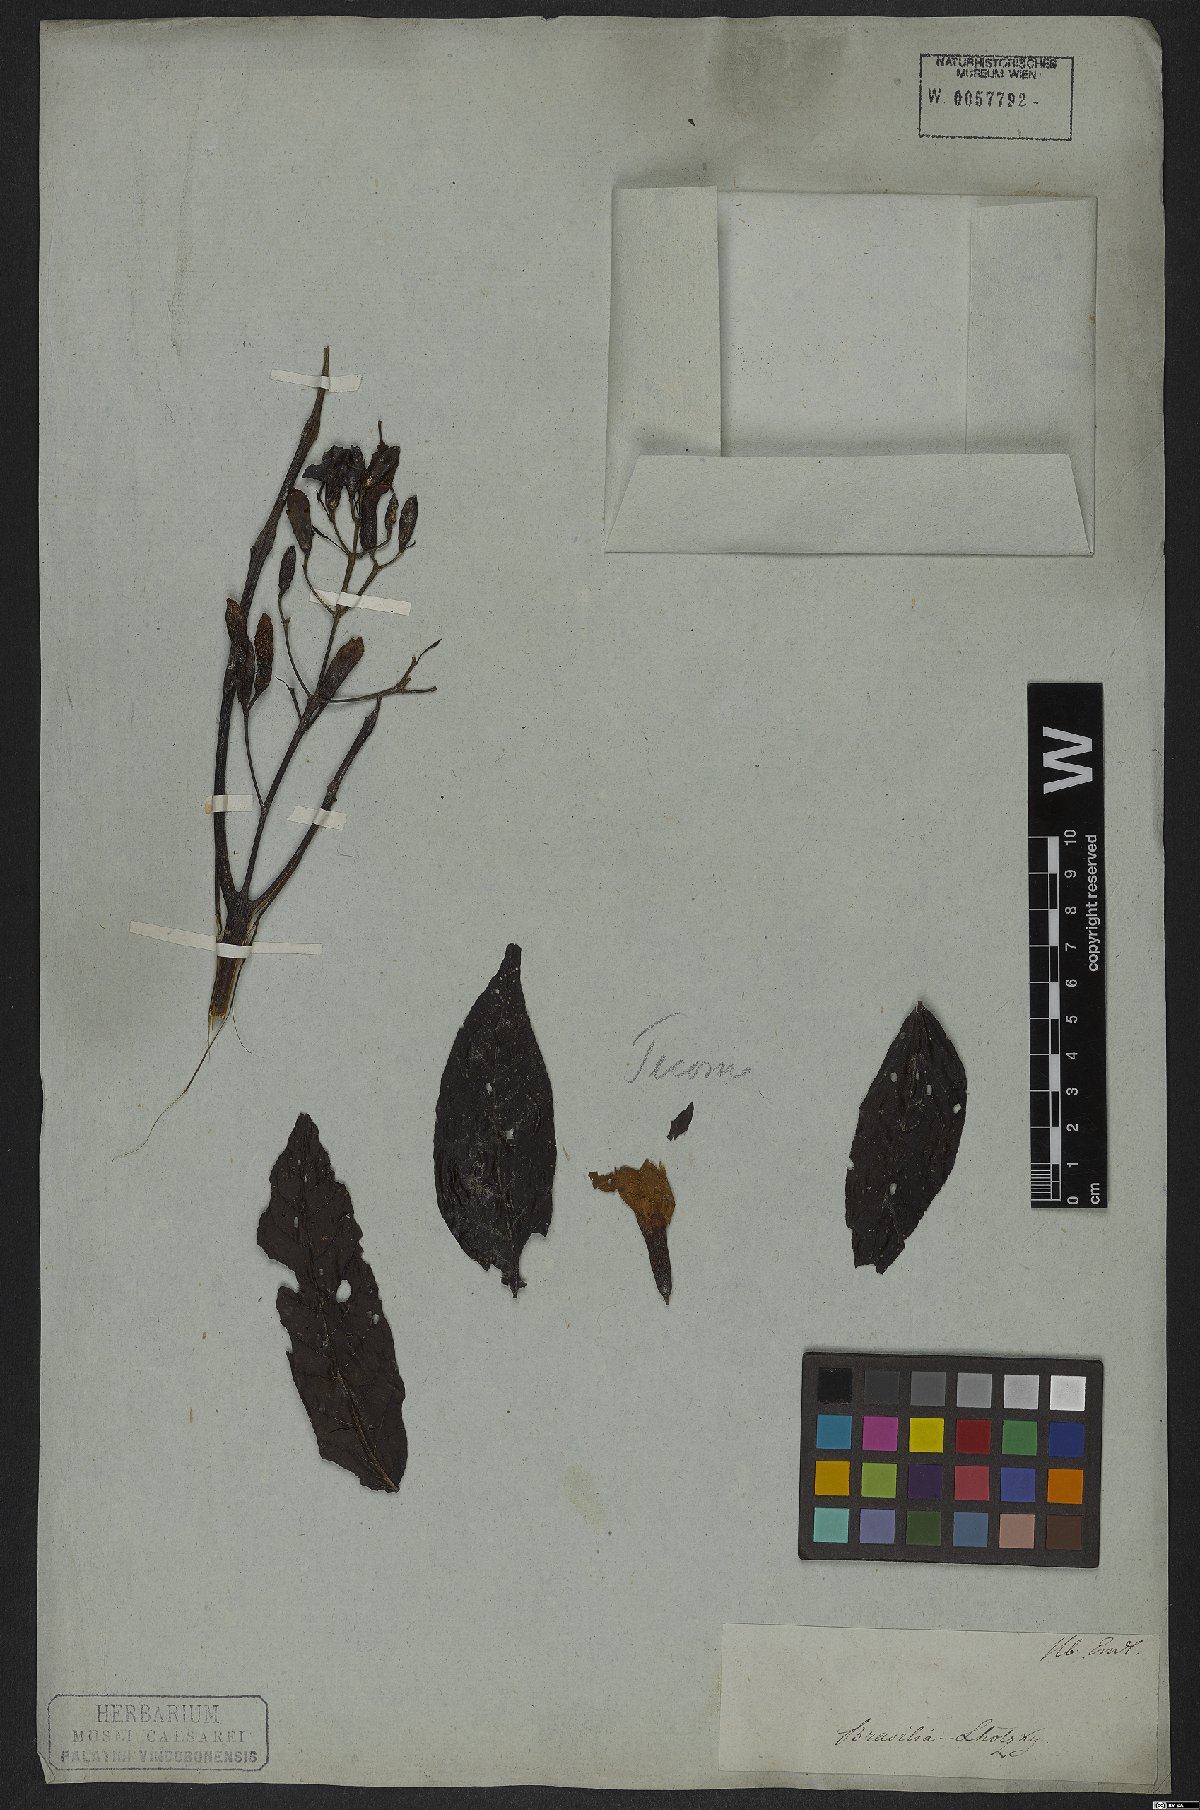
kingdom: Plantae
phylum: Tracheophyta
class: Magnoliopsida
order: Lamiales
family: Bignoniaceae
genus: Tecoma
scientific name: Tecoma stans
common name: Yellow trumpetbush
